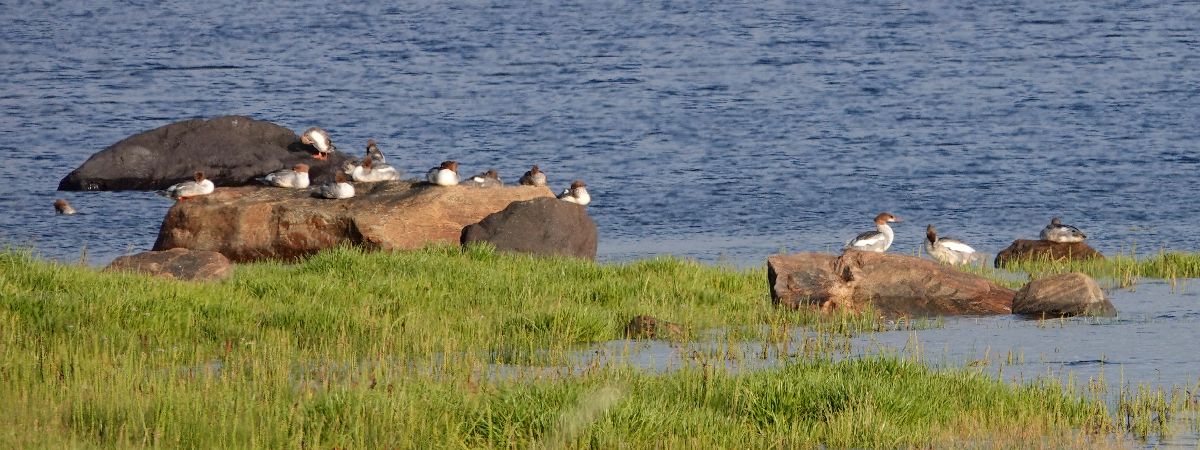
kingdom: Animalia
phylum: Chordata
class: Aves
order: Anseriformes
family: Anatidae
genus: Mergus
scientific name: Mergus merganser
